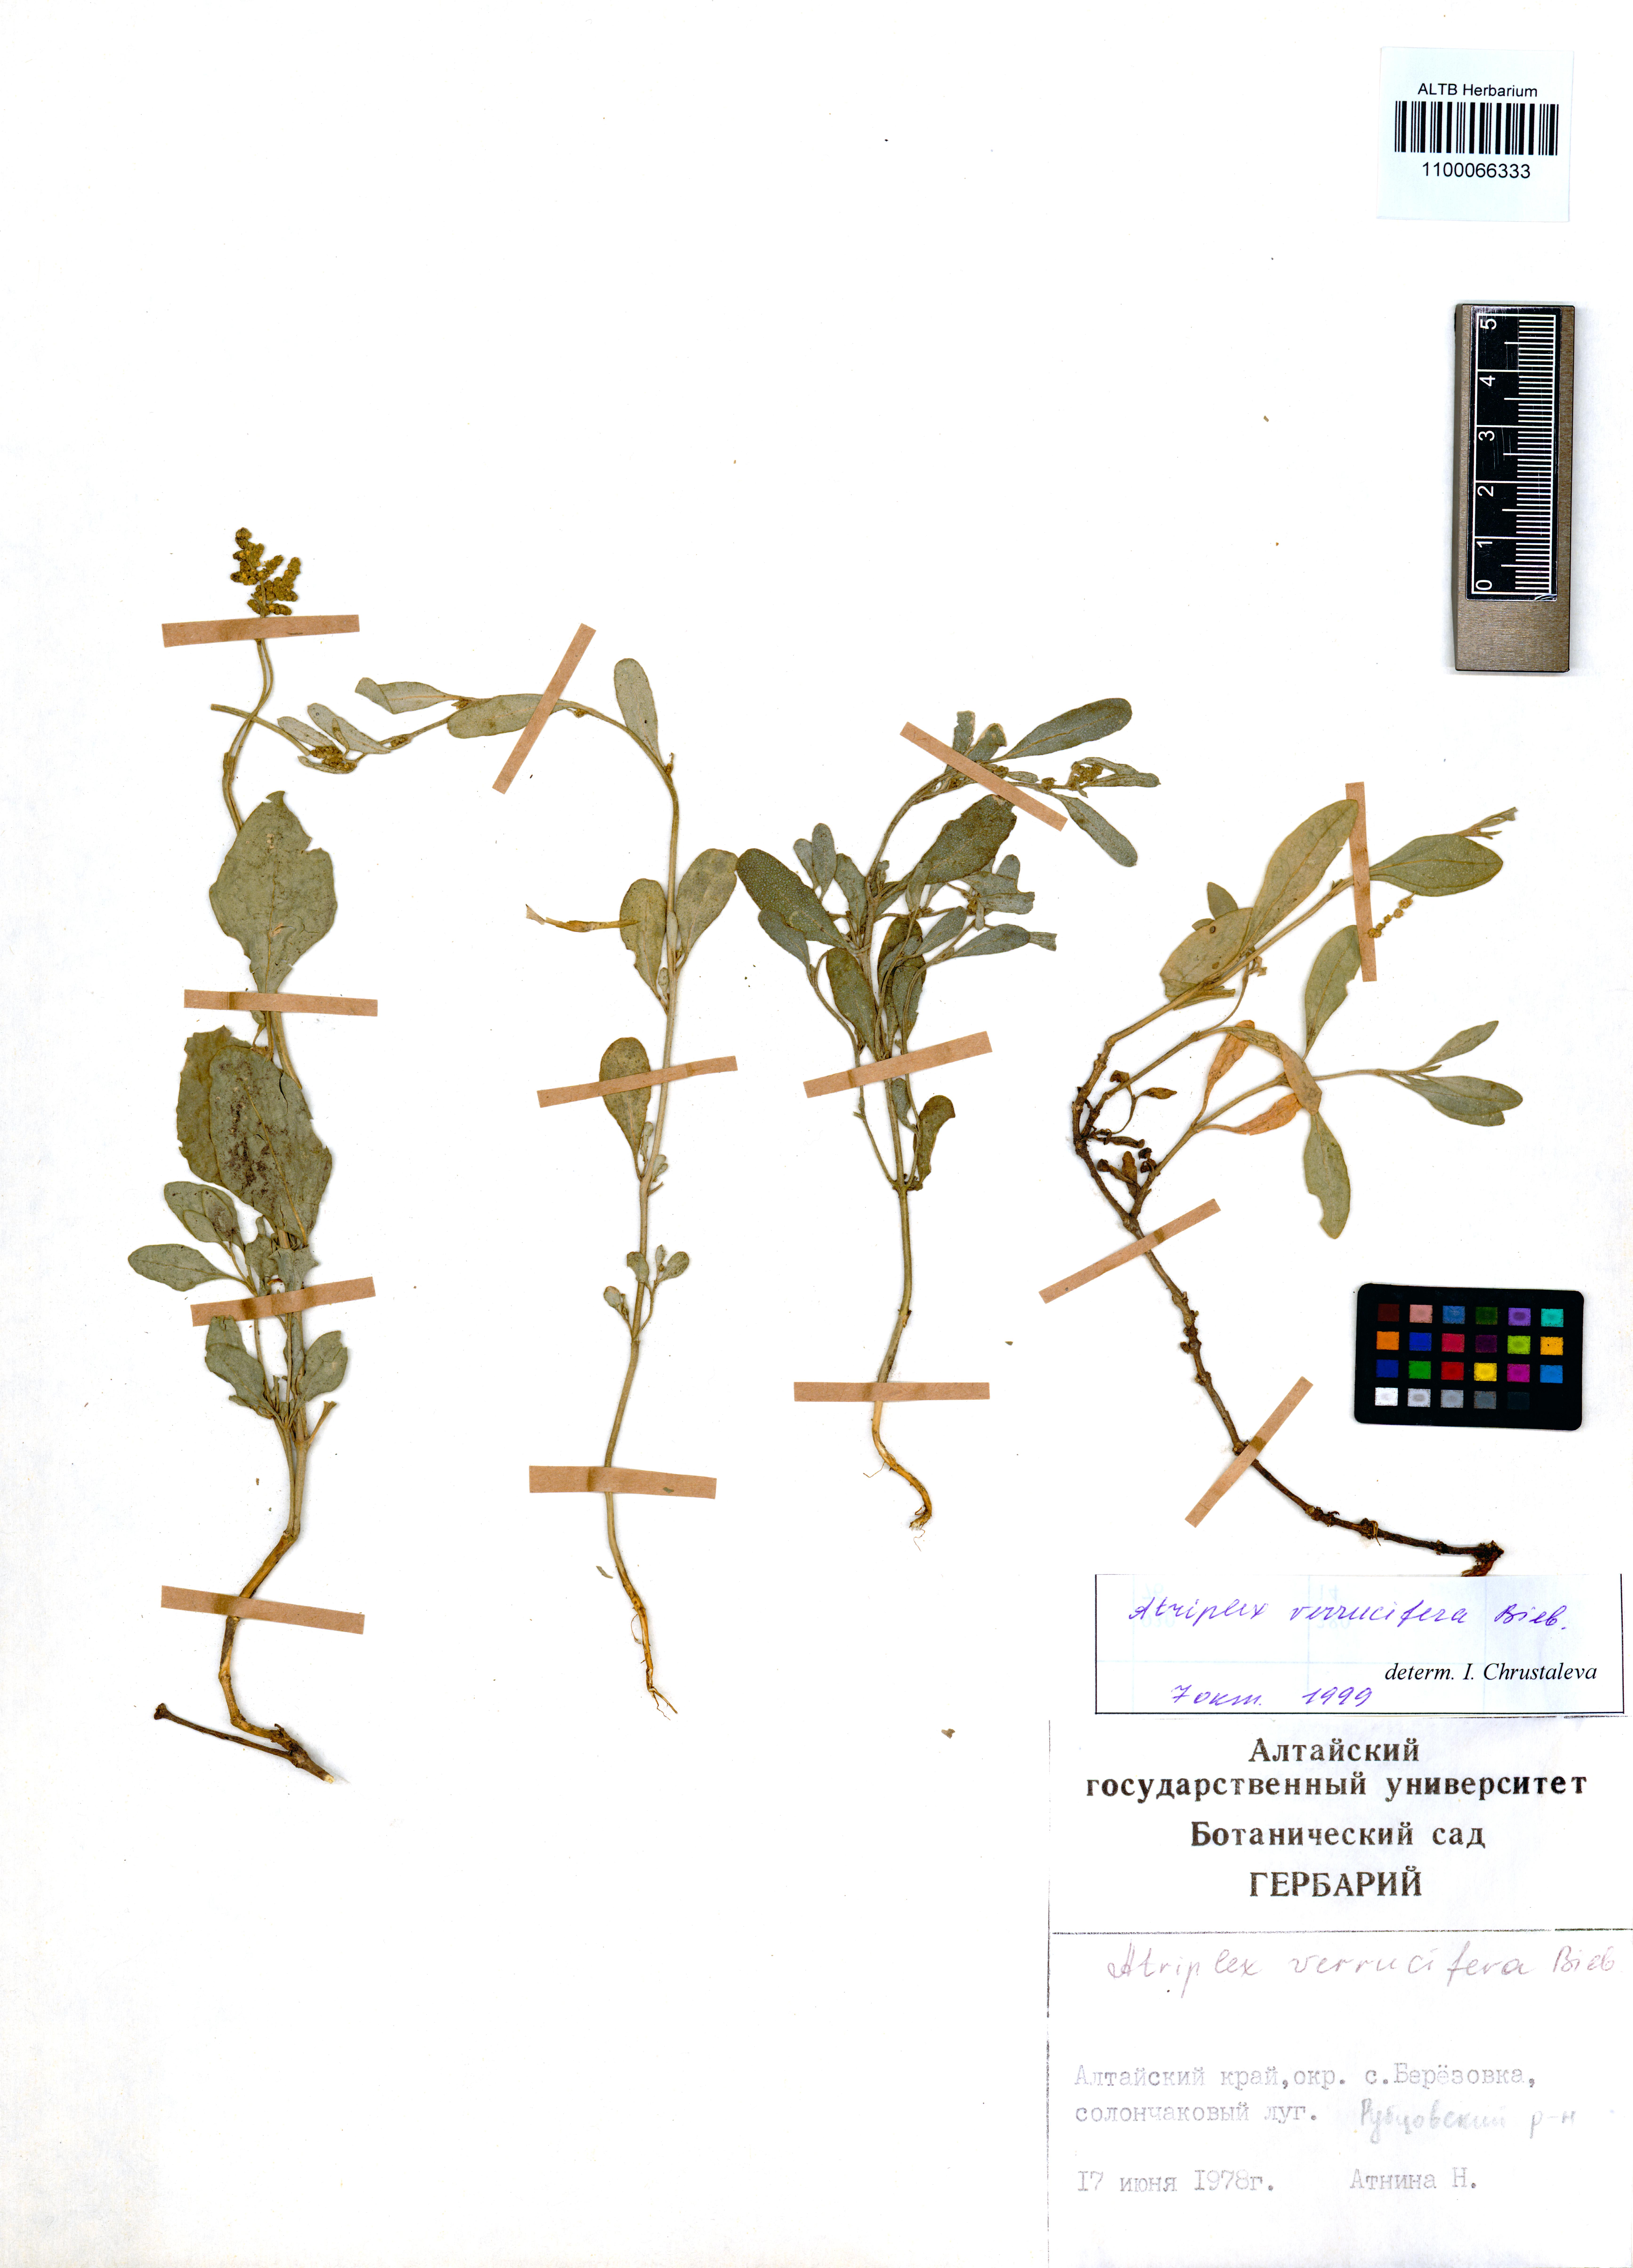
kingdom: Plantae
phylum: Tracheophyta
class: Magnoliopsida
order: Caryophyllales
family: Amaranthaceae
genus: Halimione
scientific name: Halimione verrucifera
